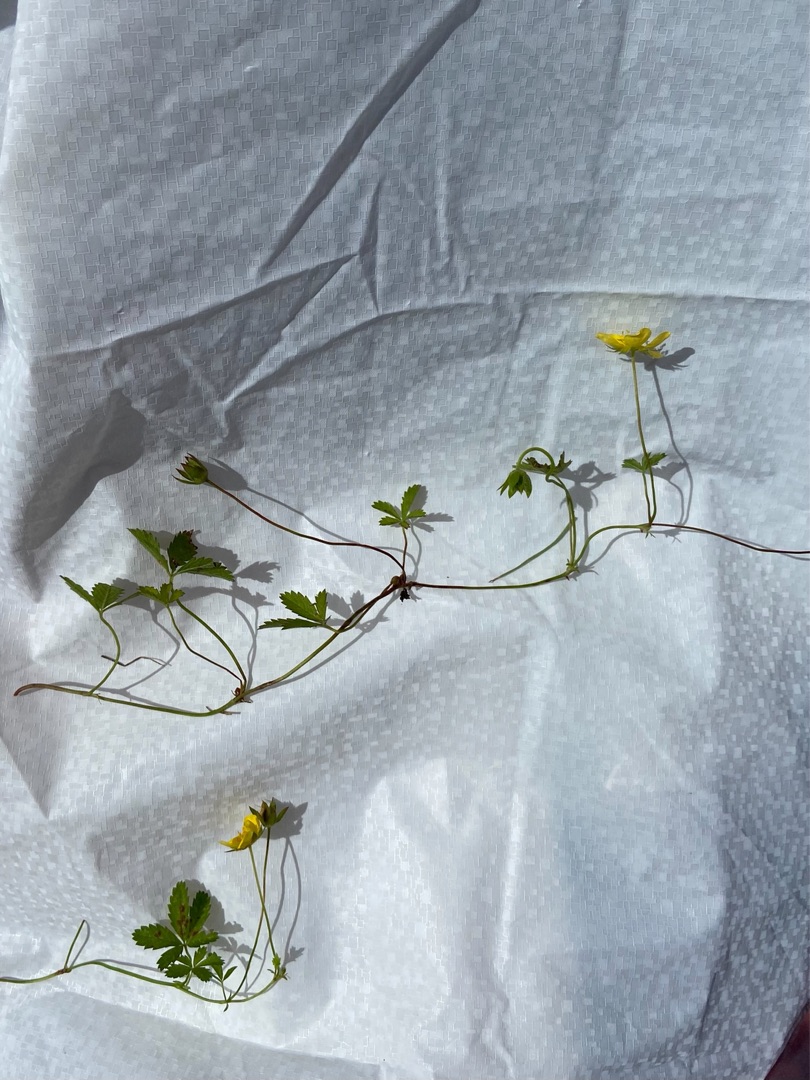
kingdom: Plantae
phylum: Tracheophyta
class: Magnoliopsida
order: Rosales
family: Rosaceae
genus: Potentilla
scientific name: Potentilla reptans
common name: Krybende potentil
